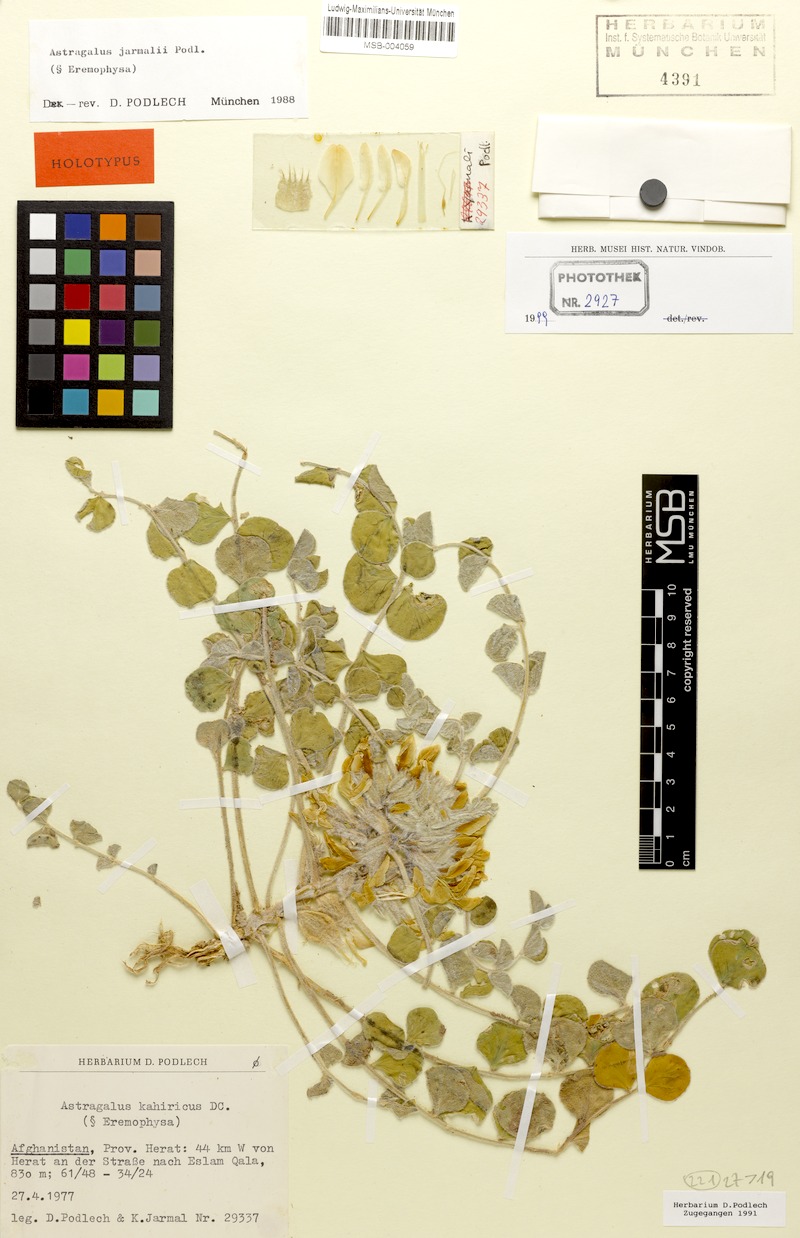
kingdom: Plantae
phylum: Tracheophyta
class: Magnoliopsida
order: Fabales
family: Fabaceae
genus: Astragalus
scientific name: Astragalus jarmalii
